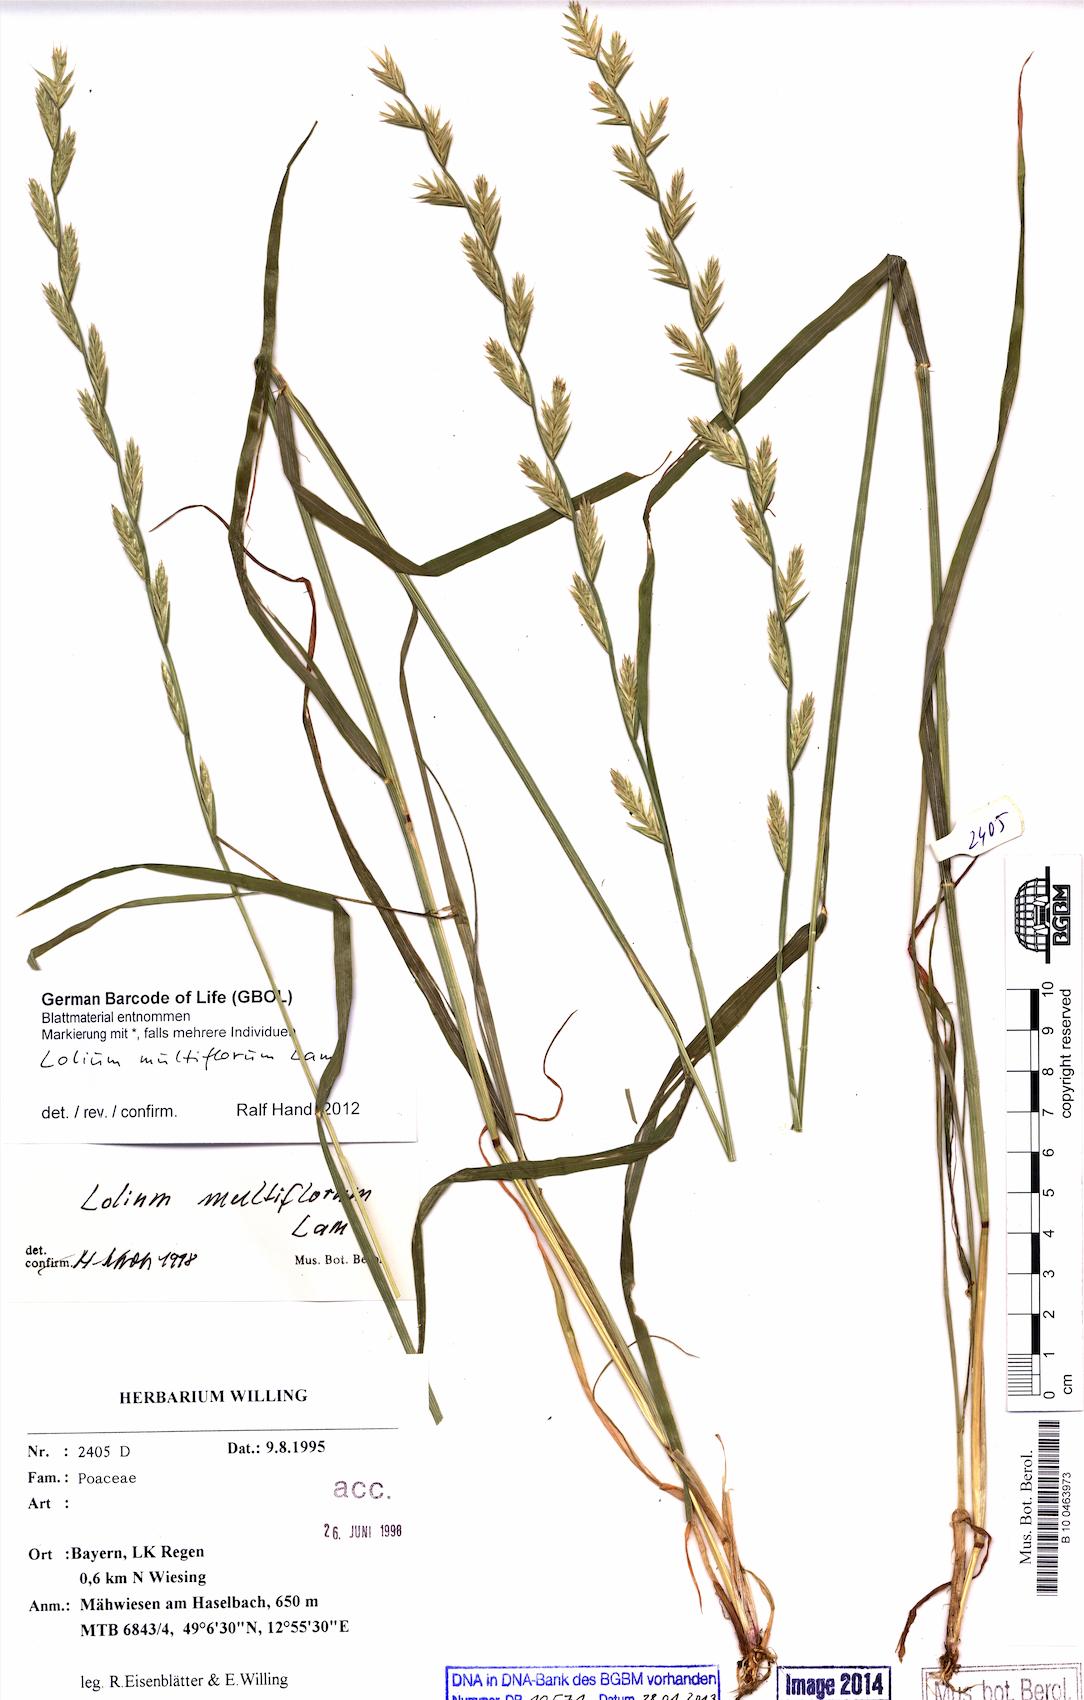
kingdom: Plantae
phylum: Tracheophyta
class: Liliopsida
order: Poales
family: Poaceae
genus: Lolium
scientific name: Lolium multiflorum
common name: Annual ryegrass
